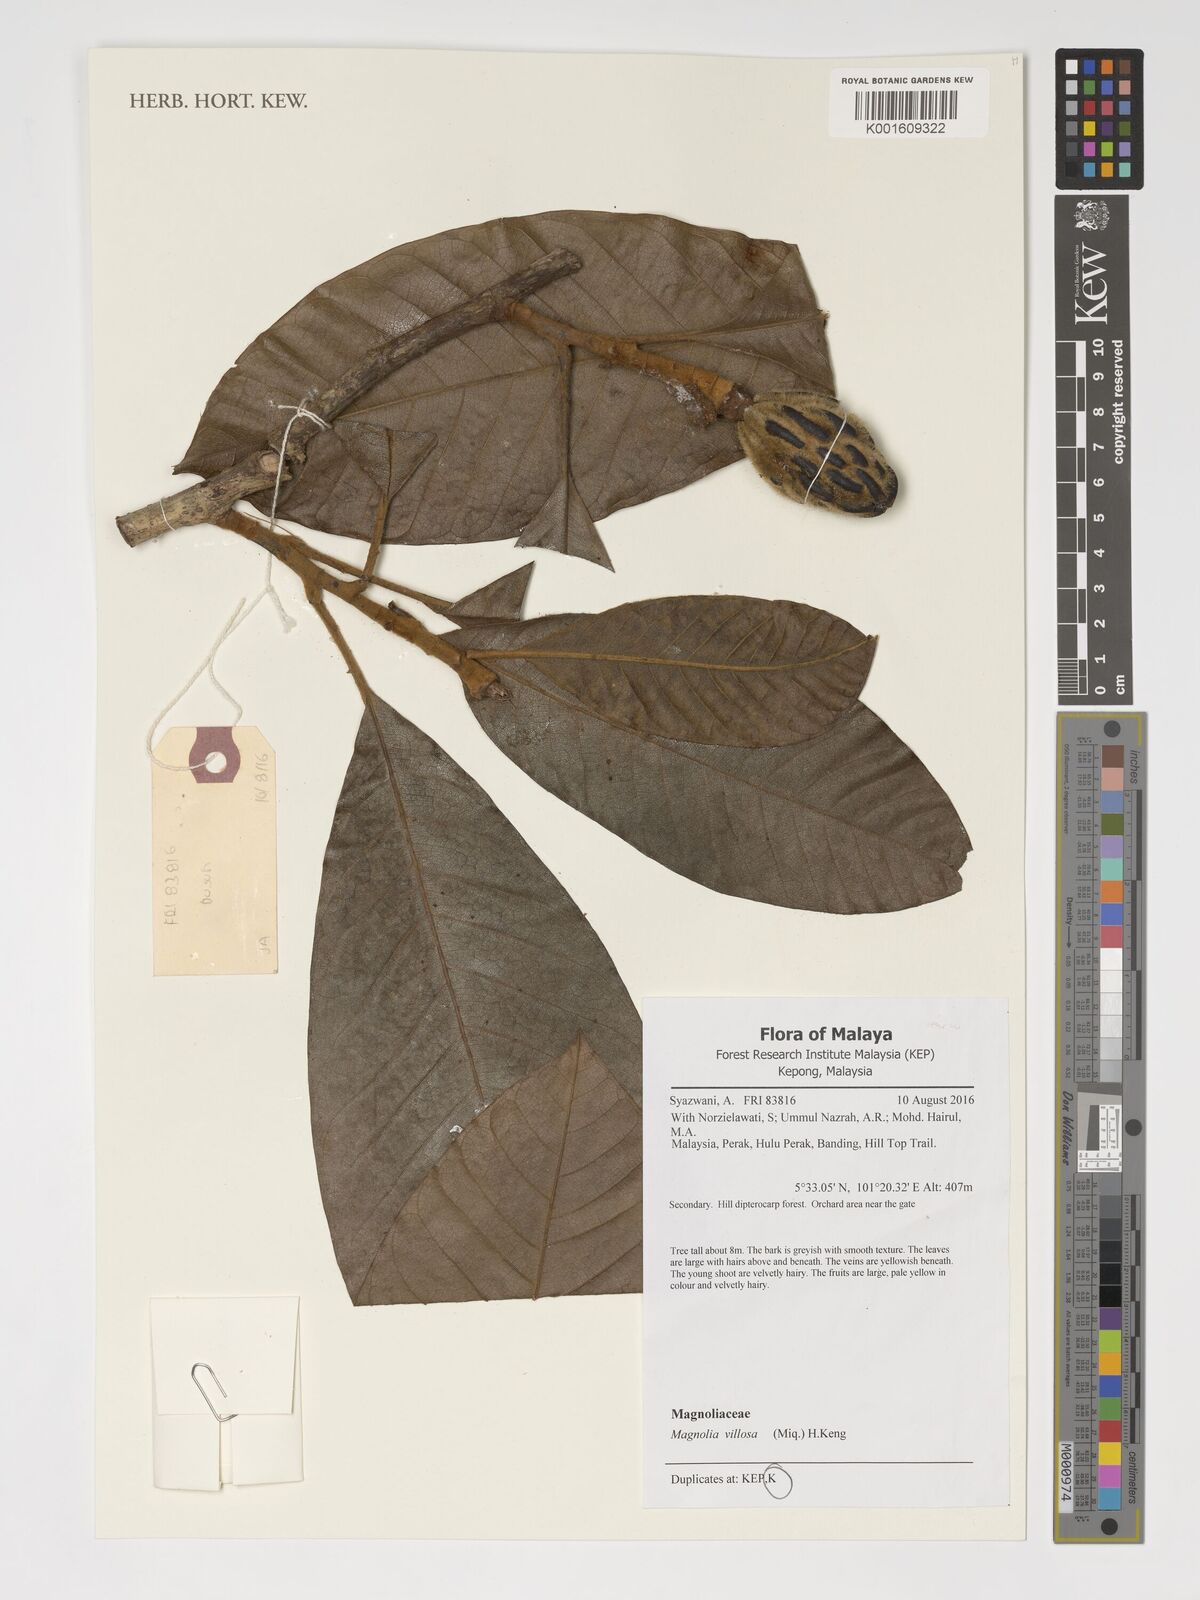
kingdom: Plantae
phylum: Tracheophyta
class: Magnoliopsida
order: Magnoliales
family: Magnoliaceae
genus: Magnolia
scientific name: Magnolia villosa
